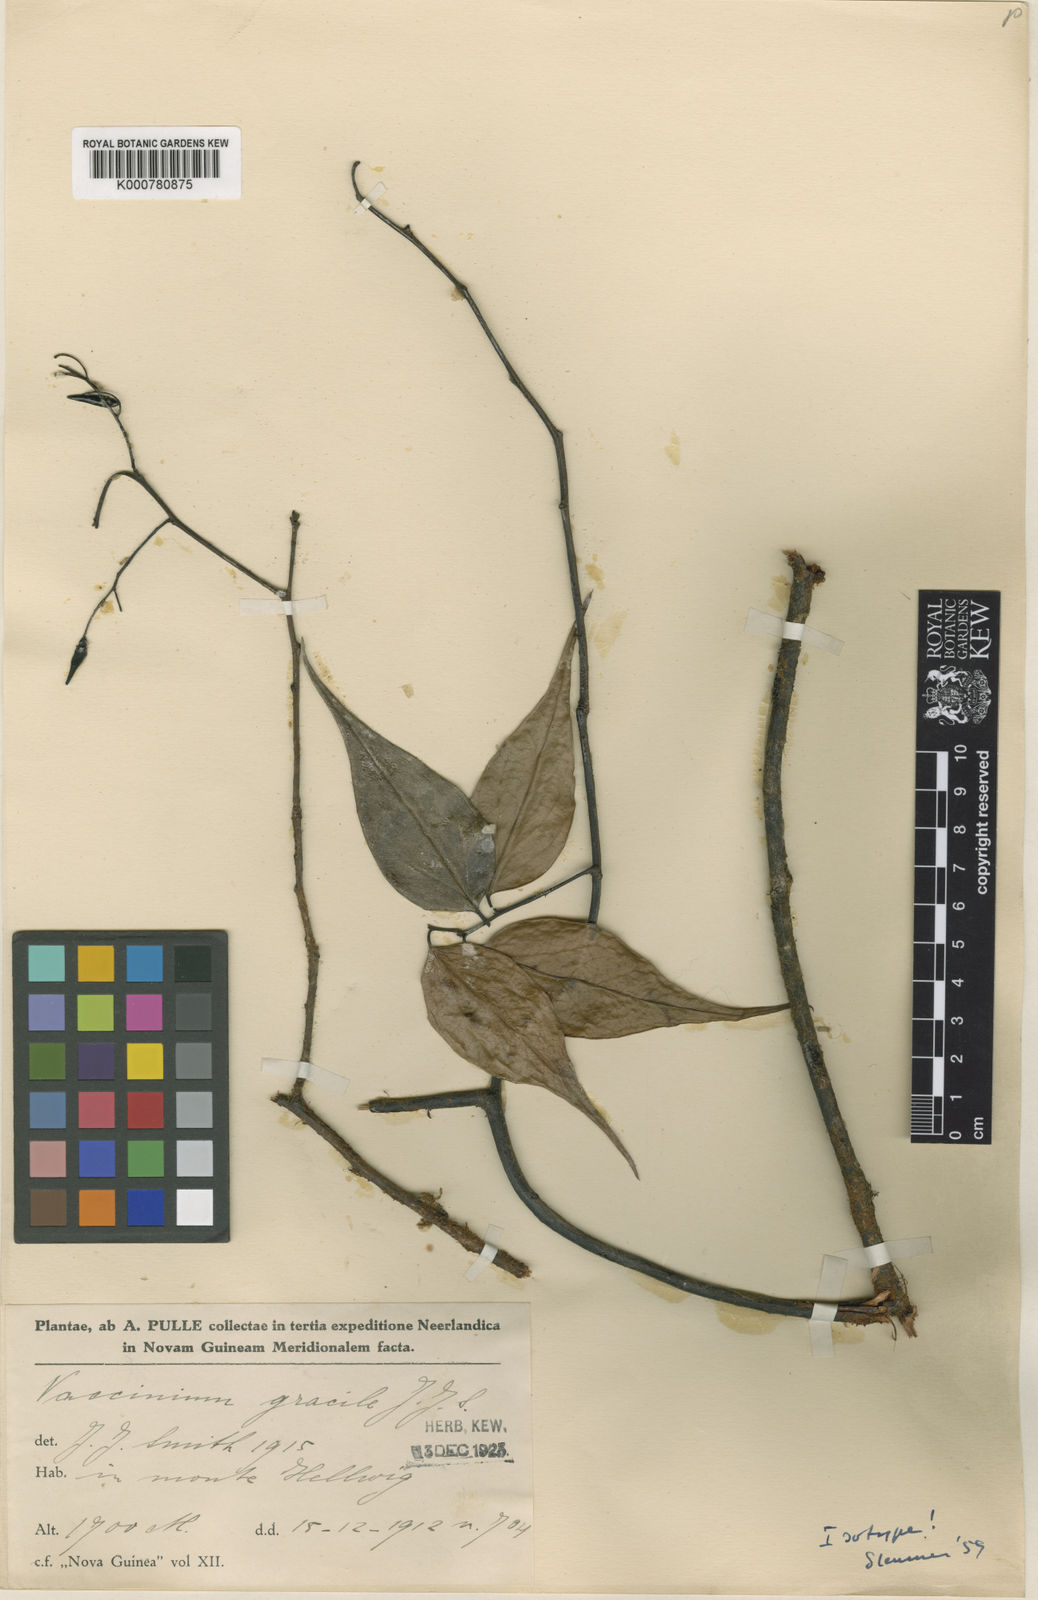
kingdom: Plantae
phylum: Tracheophyta
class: Magnoliopsida
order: Ericales
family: Ericaceae
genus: Vaccinium
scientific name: Vaccinium gracile
